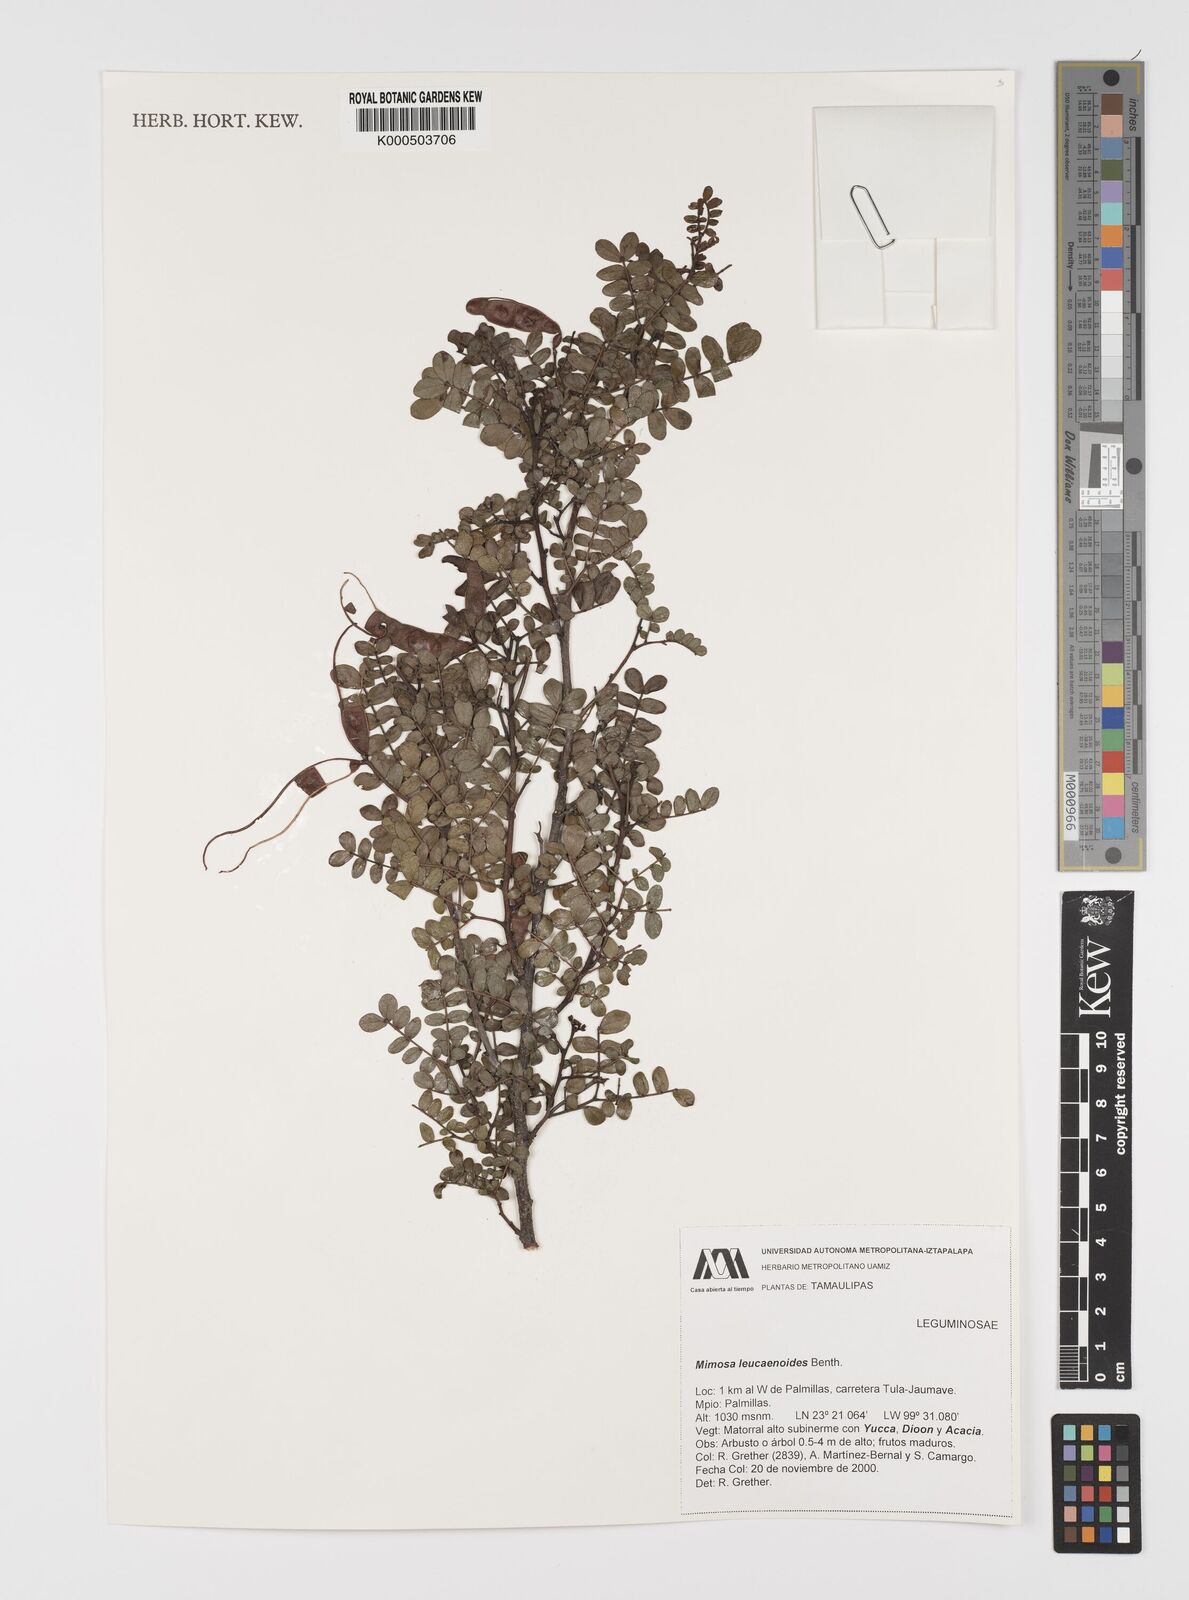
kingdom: Plantae
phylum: Tracheophyta
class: Magnoliopsida
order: Fabales
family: Fabaceae
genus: Mimosa
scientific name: Mimosa leucaenoides
